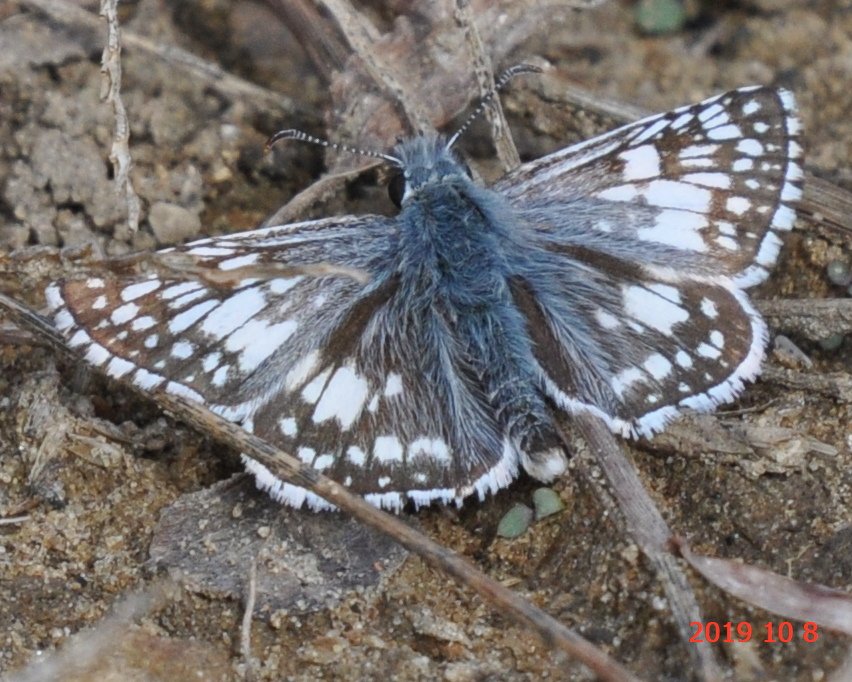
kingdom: Animalia
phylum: Arthropoda
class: Insecta
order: Lepidoptera
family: Hesperiidae
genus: Pyrgus
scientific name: Pyrgus communis
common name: Common Checkered-Skipper
